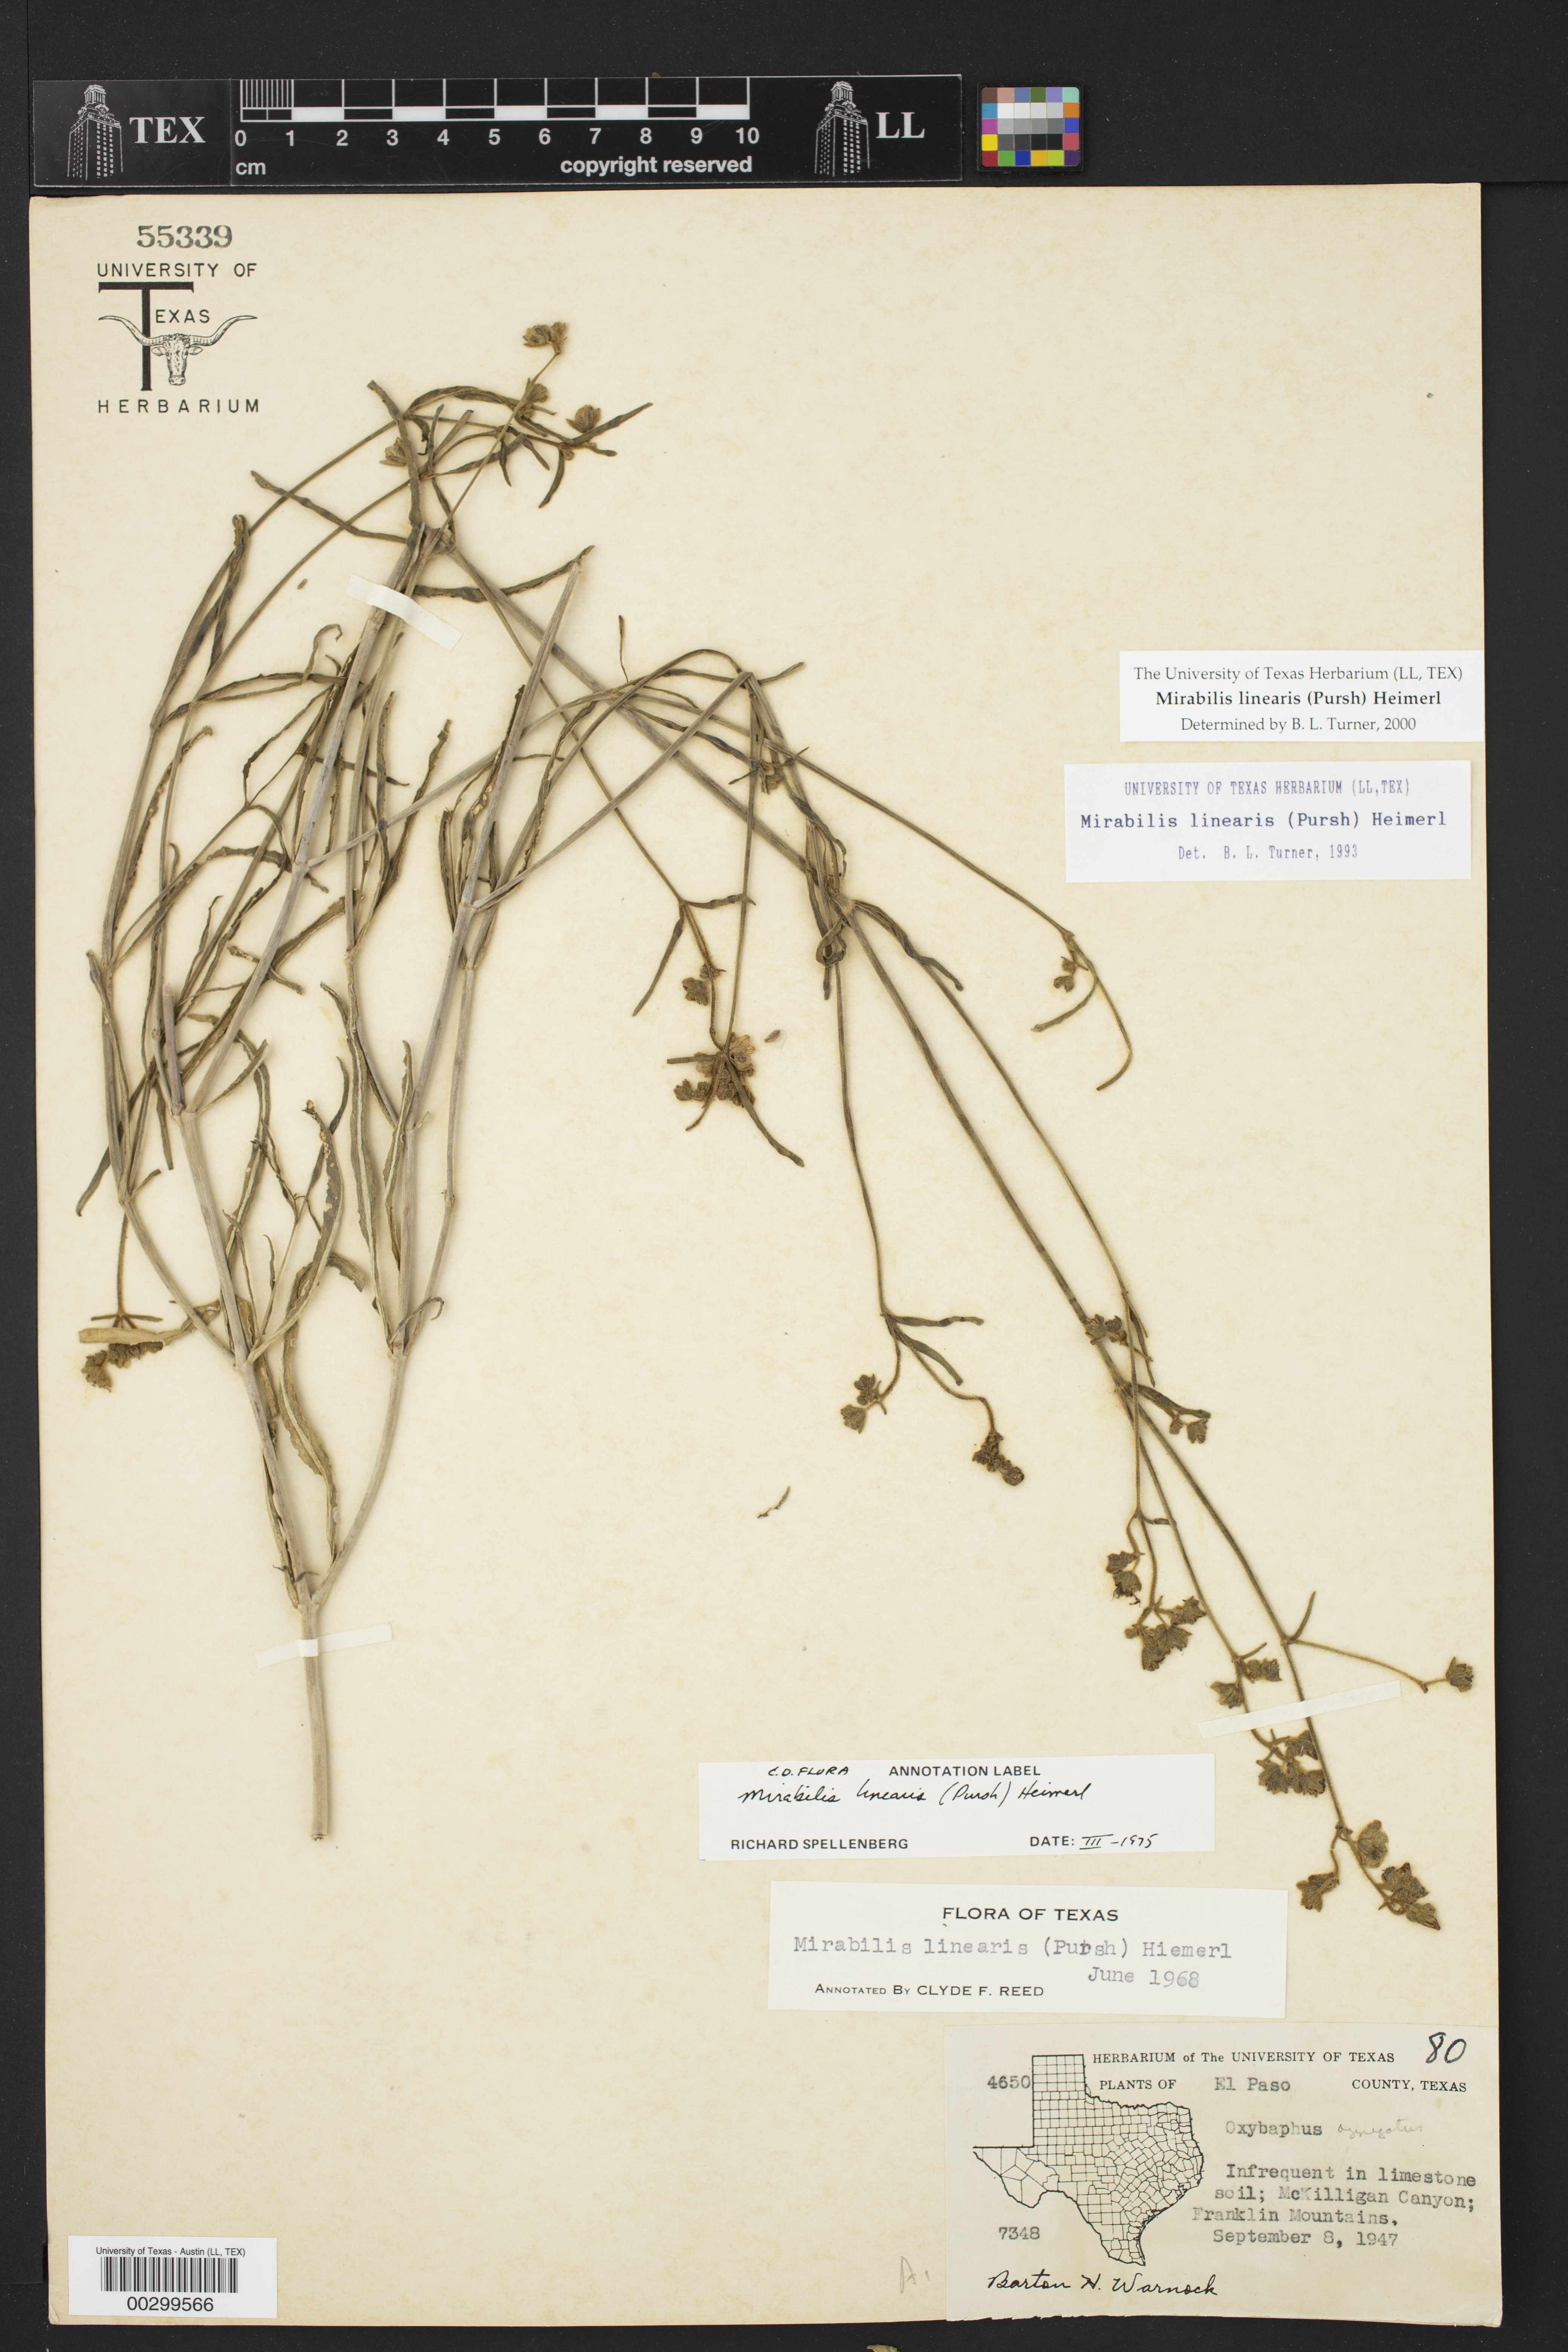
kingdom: Plantae
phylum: Tracheophyta
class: Magnoliopsida
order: Caryophyllales
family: Nyctaginaceae
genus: Mirabilis
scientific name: Mirabilis linearis
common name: Linear-leaved four-o'clock
